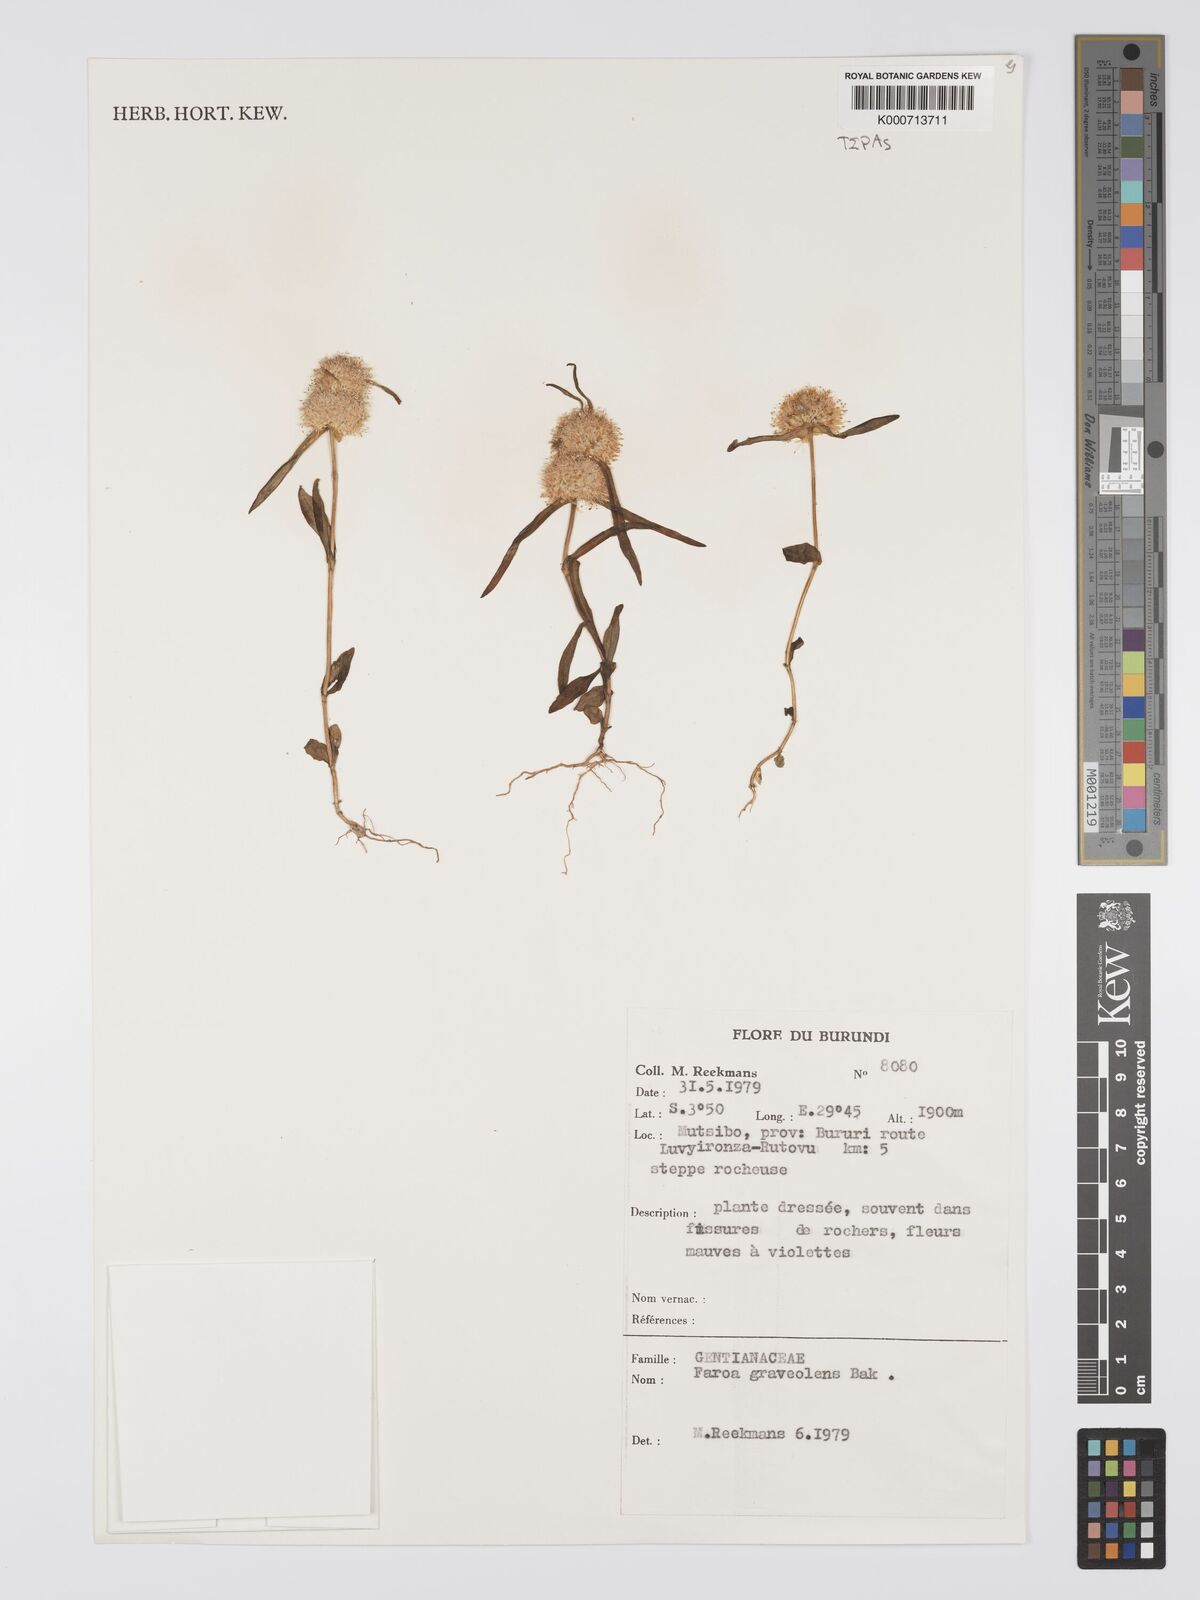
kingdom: Plantae
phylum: Tracheophyta
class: Magnoliopsida
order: Gentianales
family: Gentianaceae
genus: Faroa
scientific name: Faroa graveolens
